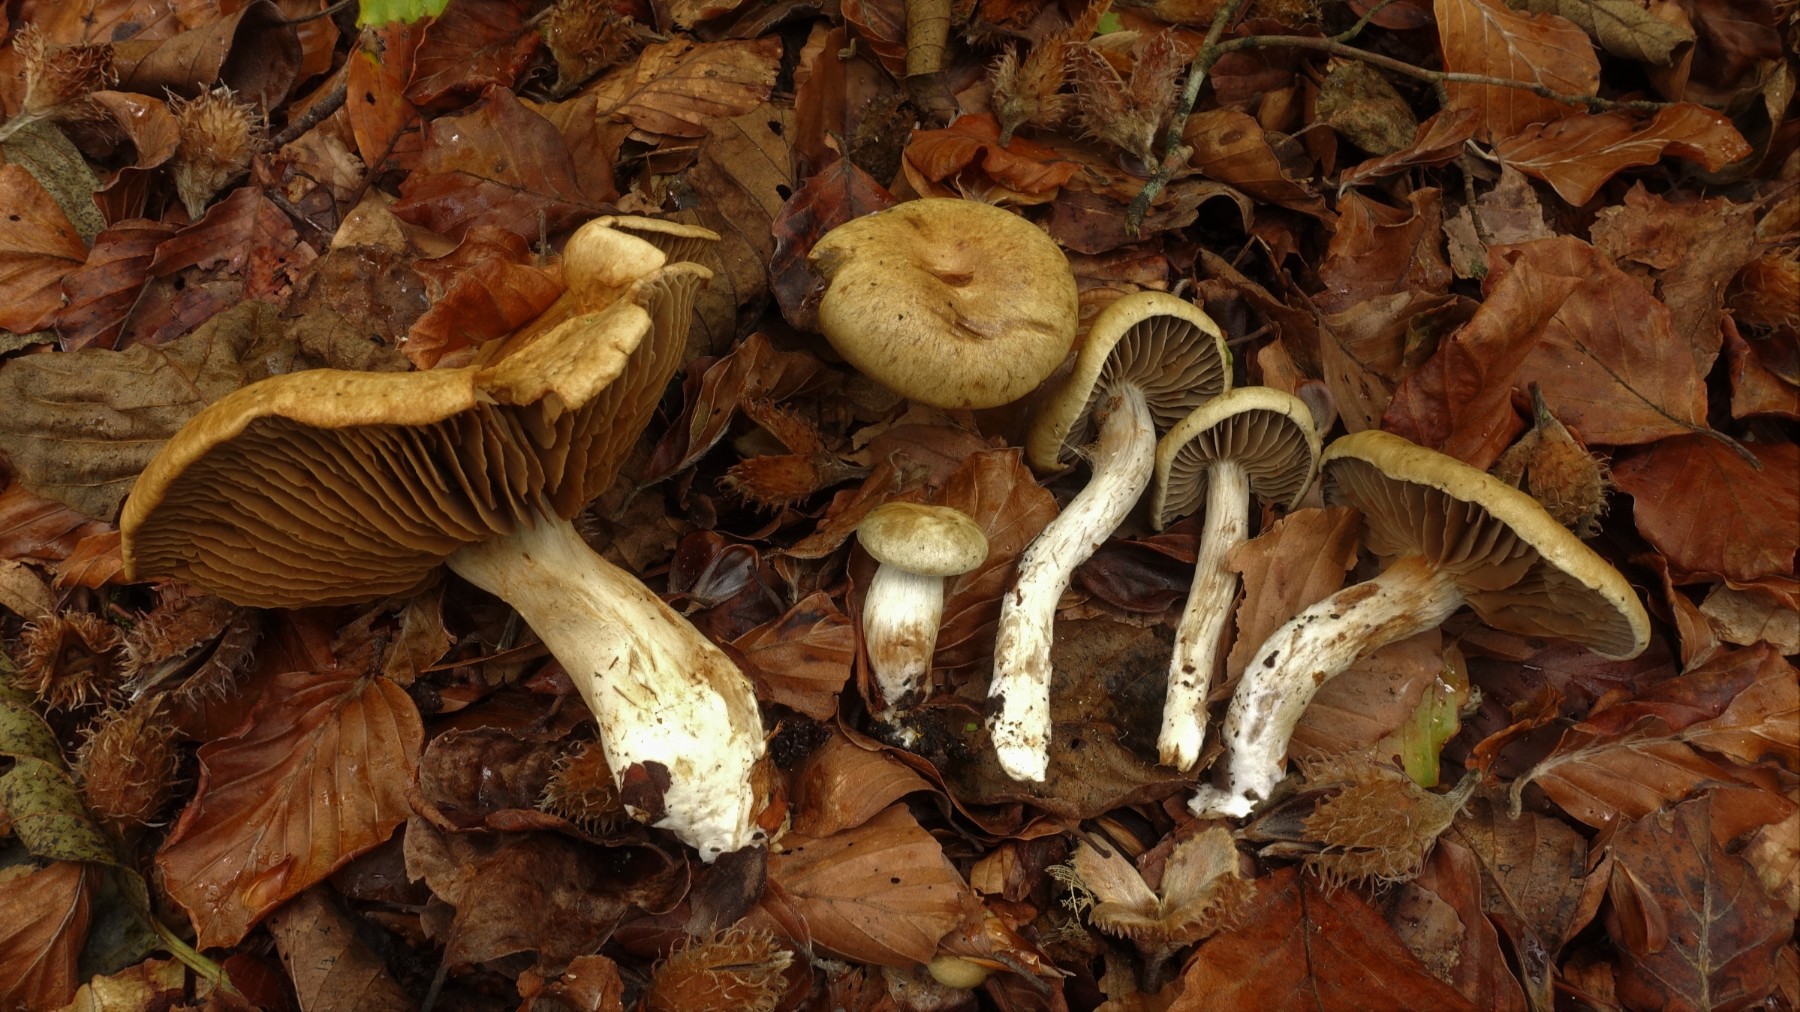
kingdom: Fungi
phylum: Basidiomycota
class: Agaricomycetes
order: Agaricales
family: Cortinariaceae
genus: Cortinarius
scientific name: Cortinarius subtortus
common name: olivengul slørhat
